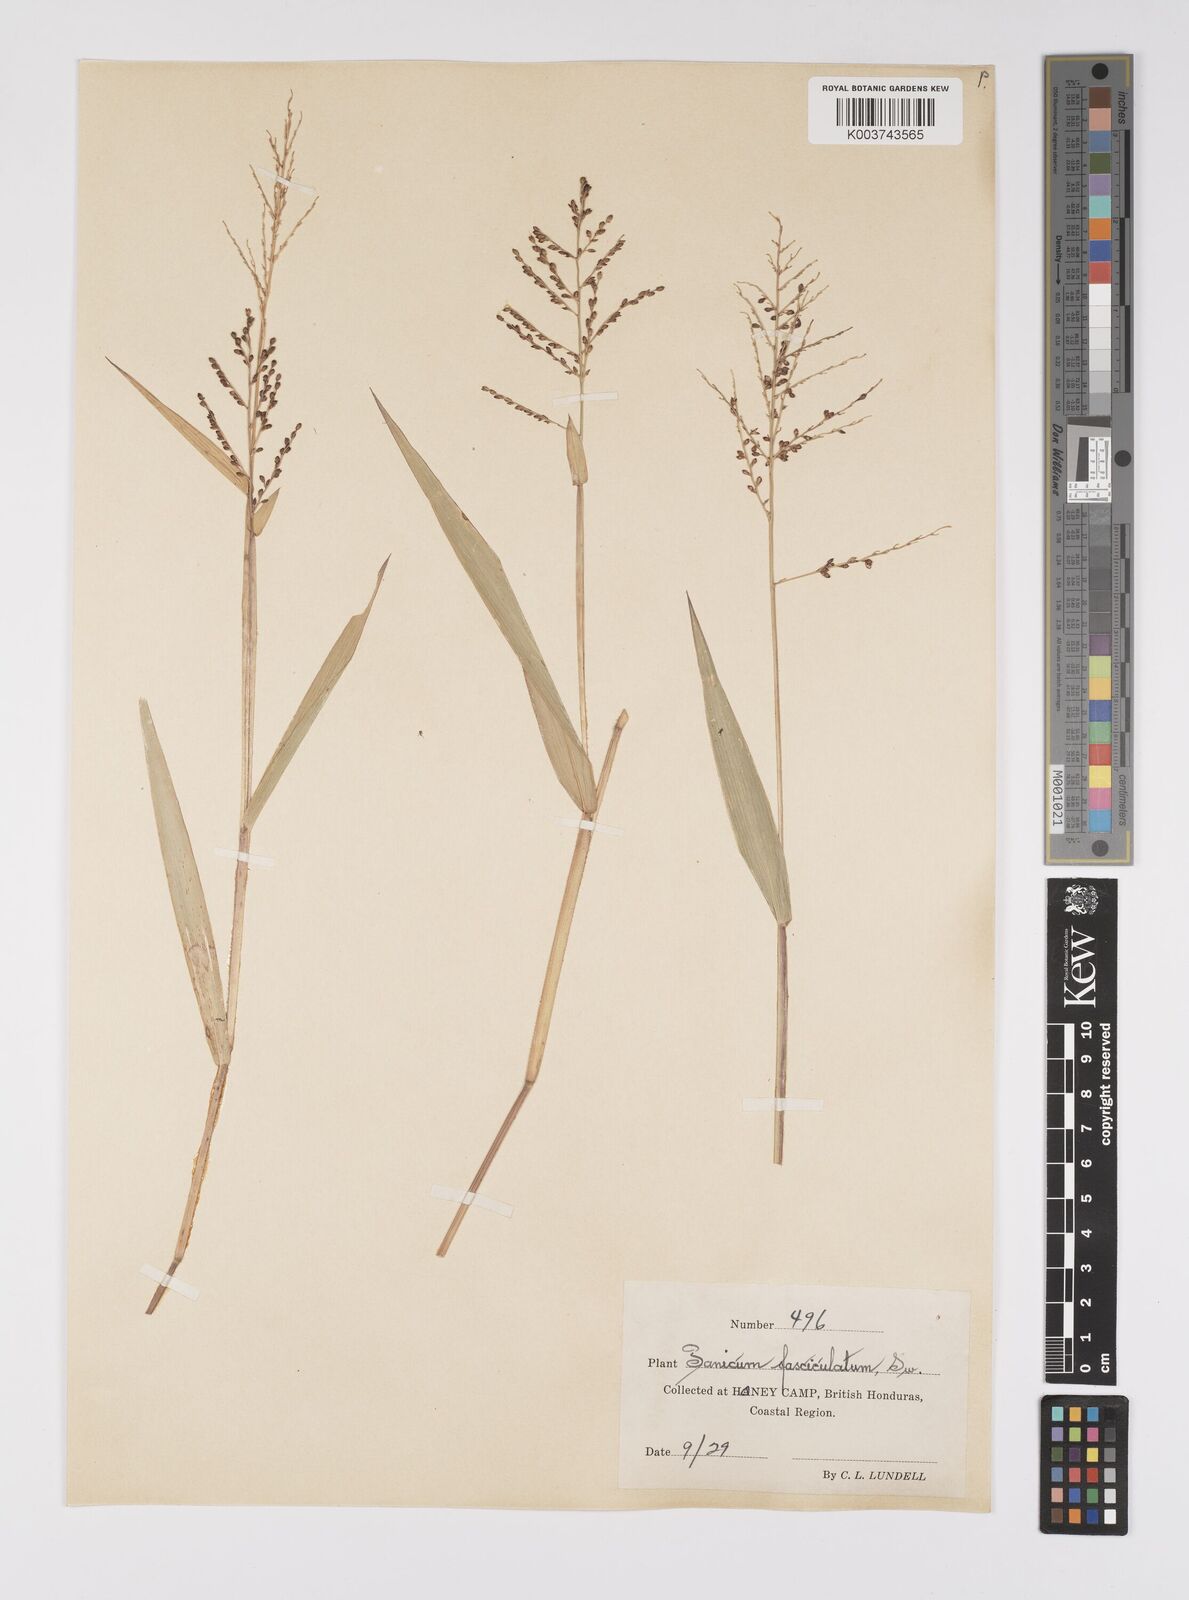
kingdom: Plantae
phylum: Tracheophyta
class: Liliopsida
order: Poales
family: Poaceae
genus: Urochloa
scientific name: Urochloa fusca
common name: Browntop signal grass
